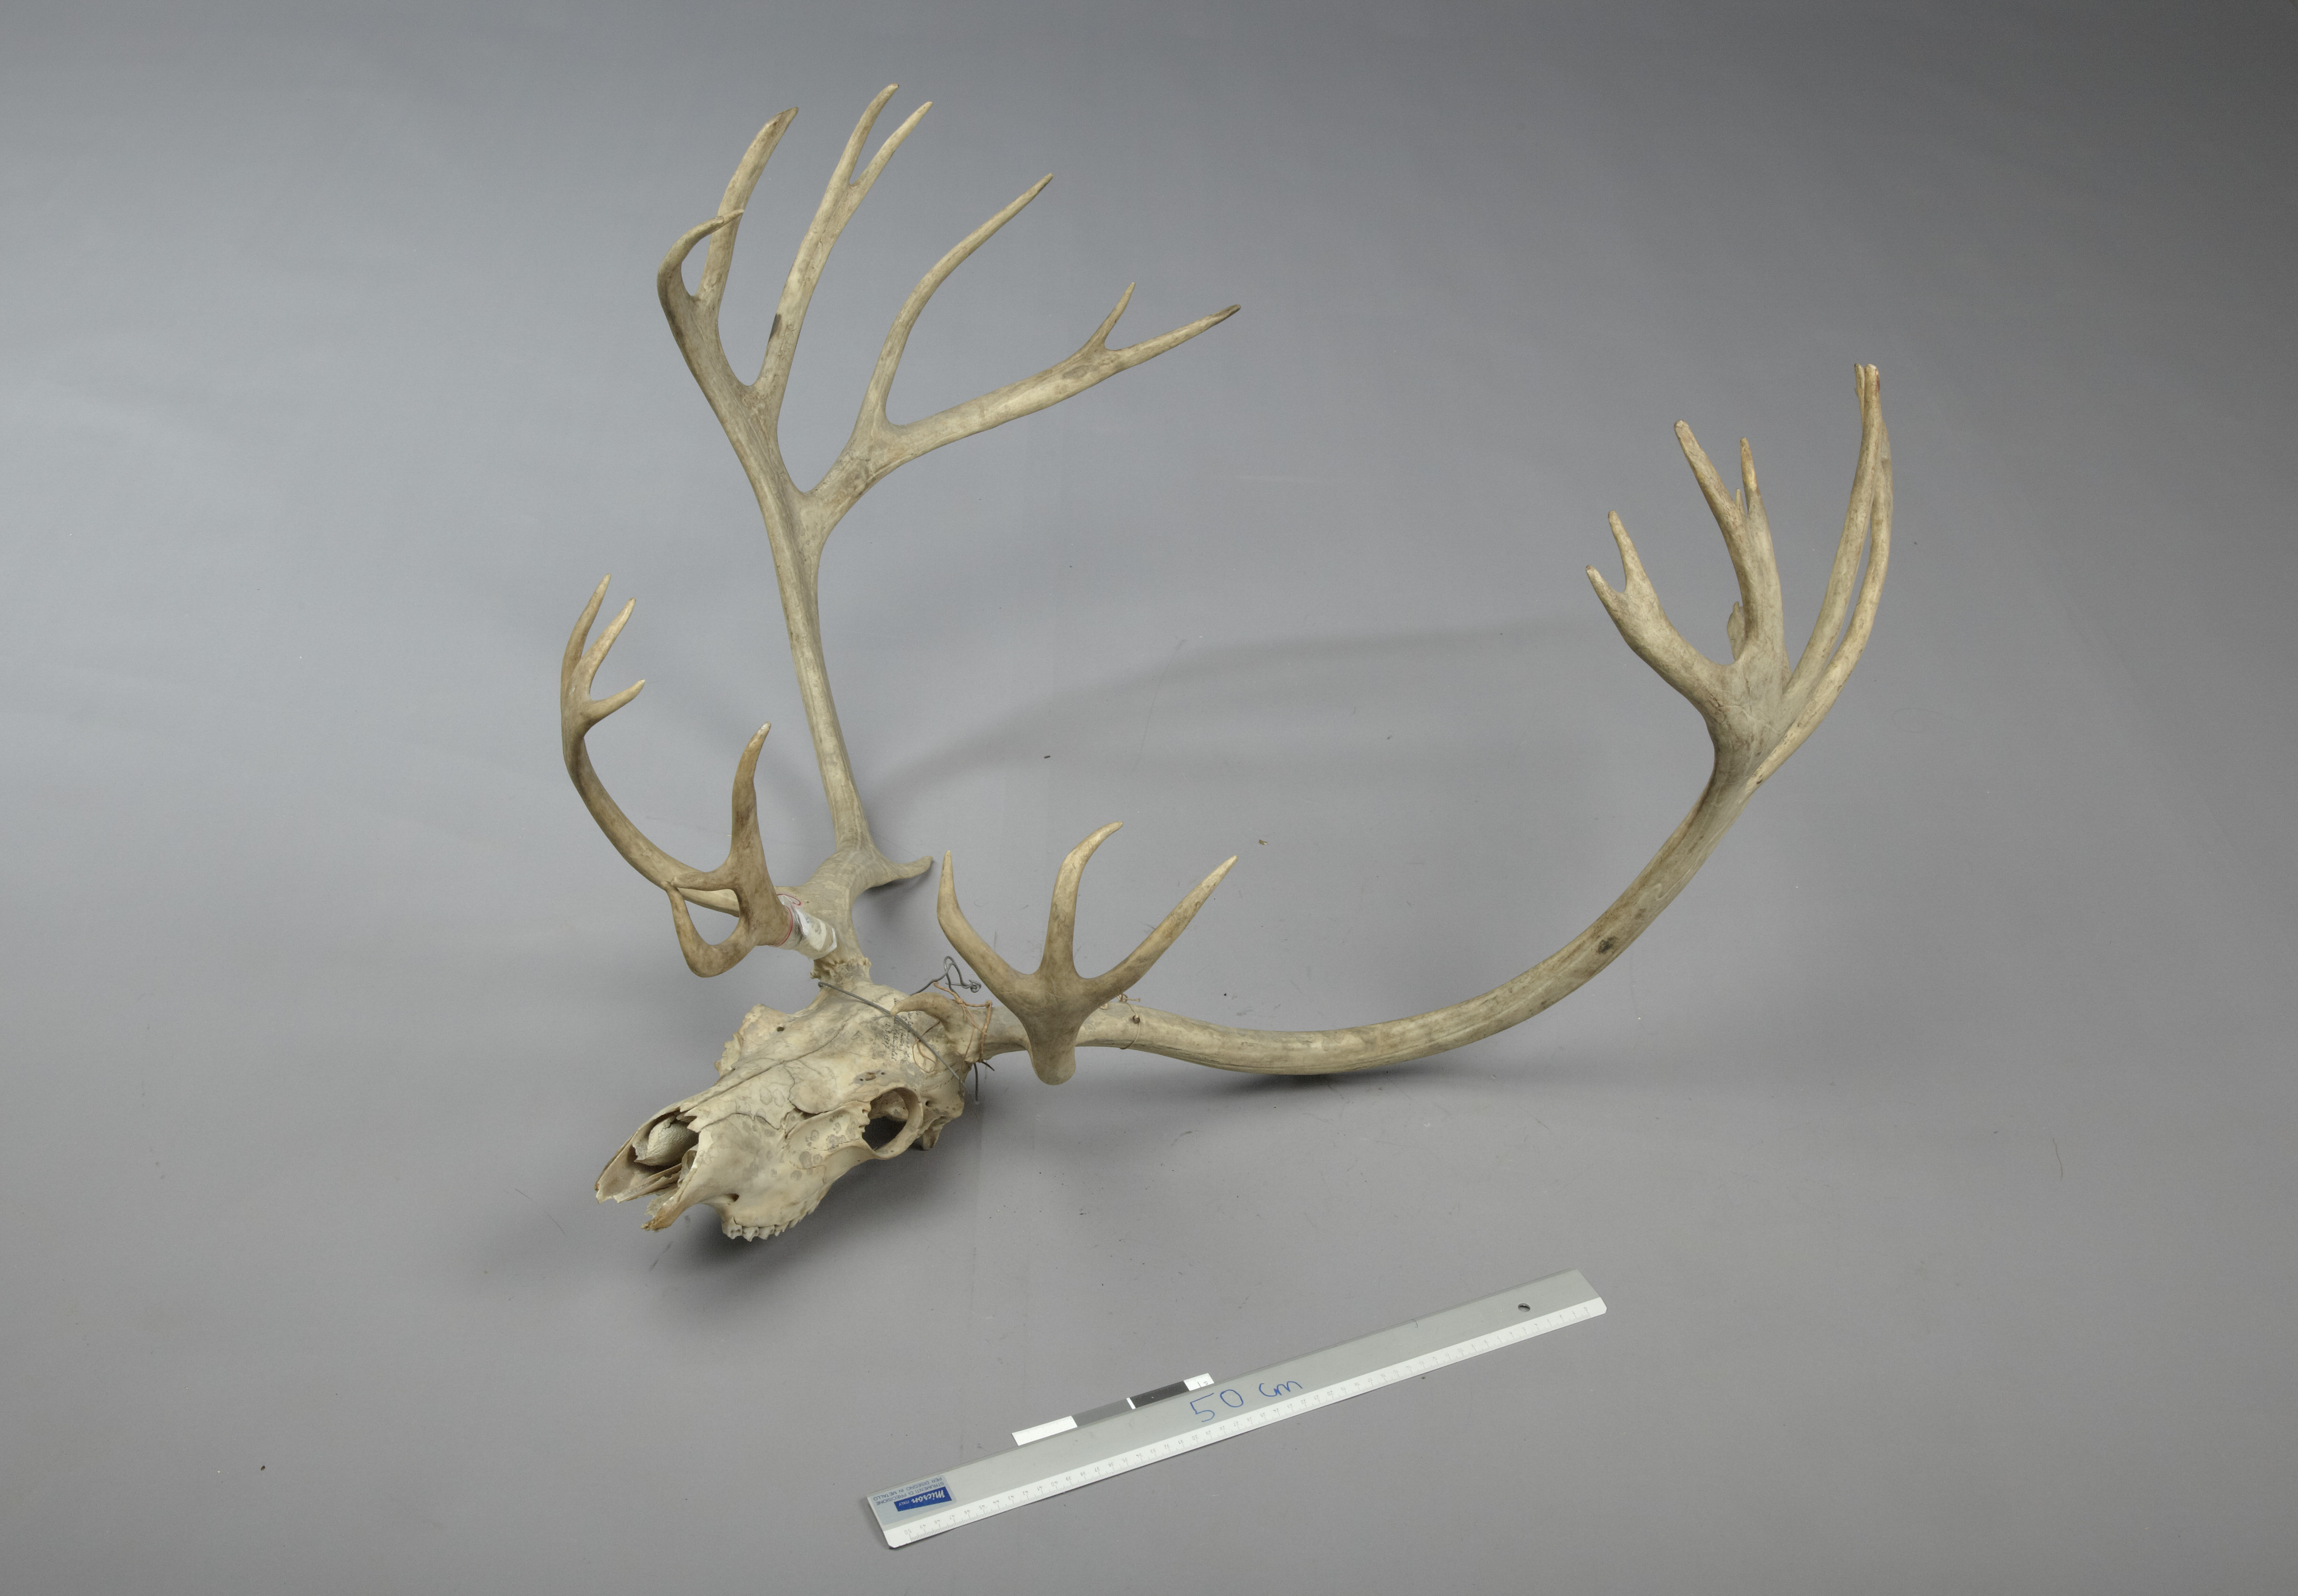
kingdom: Animalia
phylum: Chordata
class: Mammalia
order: Artiodactyla
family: Cervidae
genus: Rangifer
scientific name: Rangifer tarandus
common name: Reindeer
